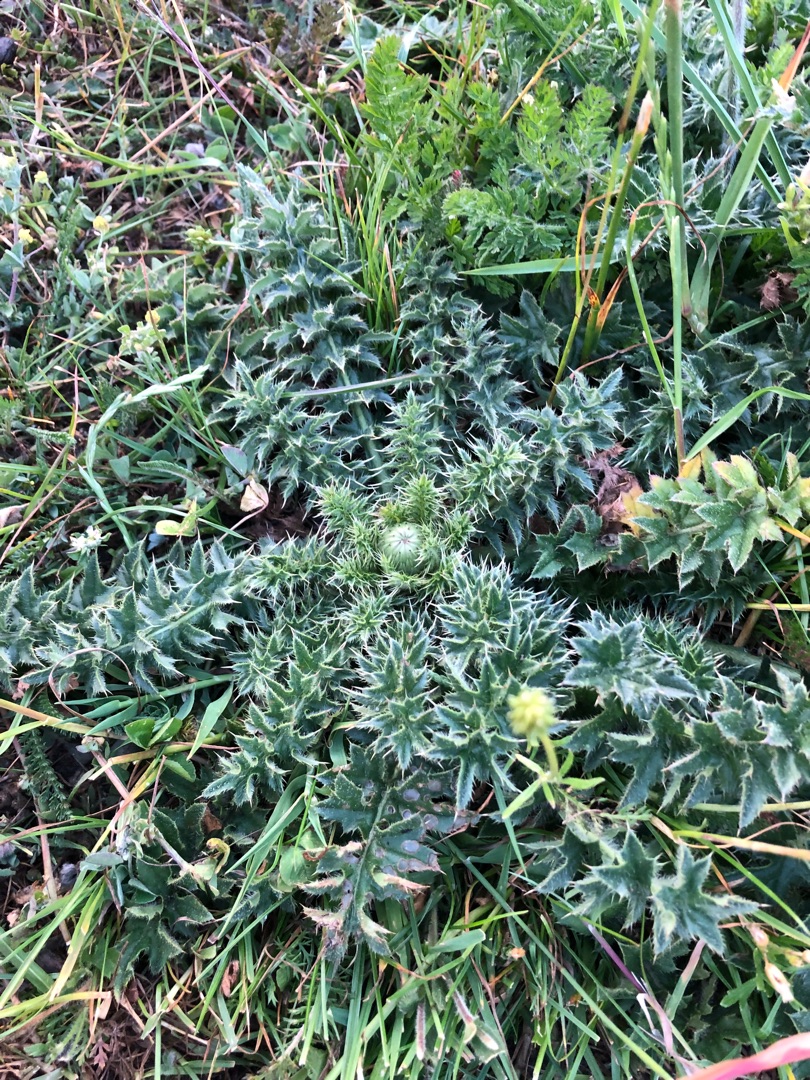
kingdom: Plantae
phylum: Tracheophyta
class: Magnoliopsida
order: Asterales
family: Asteraceae
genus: Cirsium
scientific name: Cirsium acaule
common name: Lav tidsel
